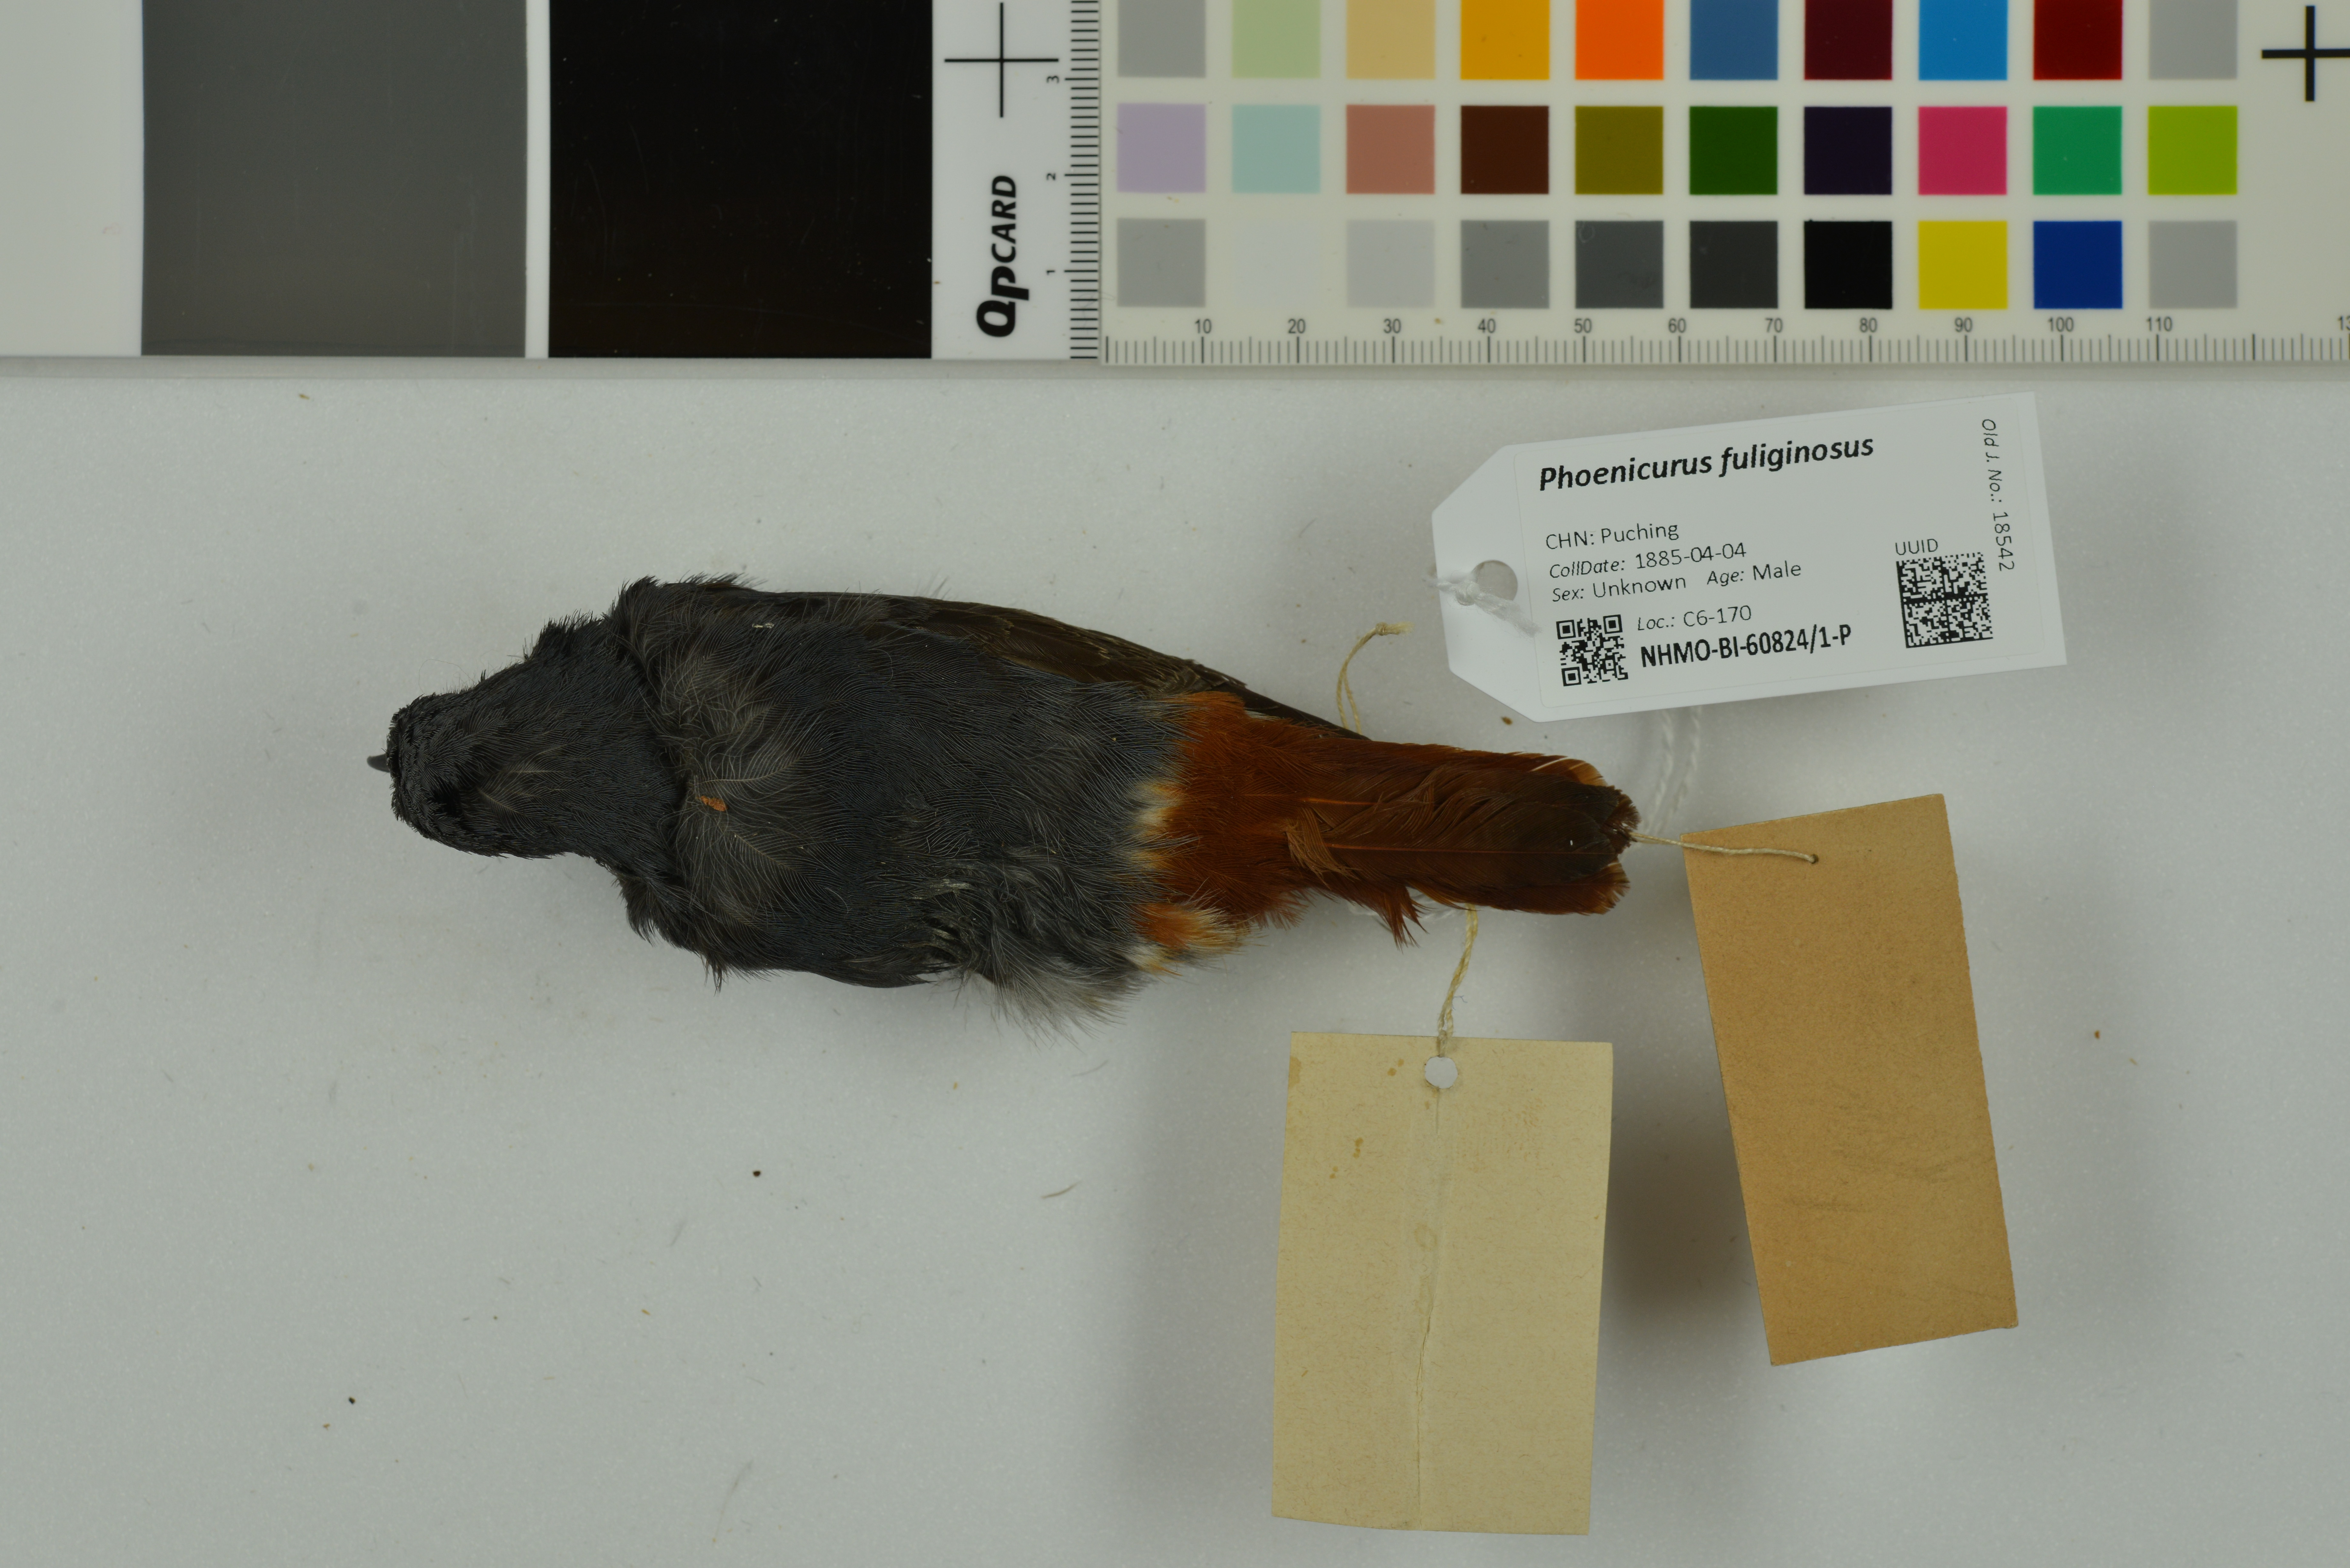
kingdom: Animalia
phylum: Chordata
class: Aves
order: Passeriformes
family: Muscicapidae
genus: Phoenicurus
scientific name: Phoenicurus fuliginosus
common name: Plumbeous water redstart
